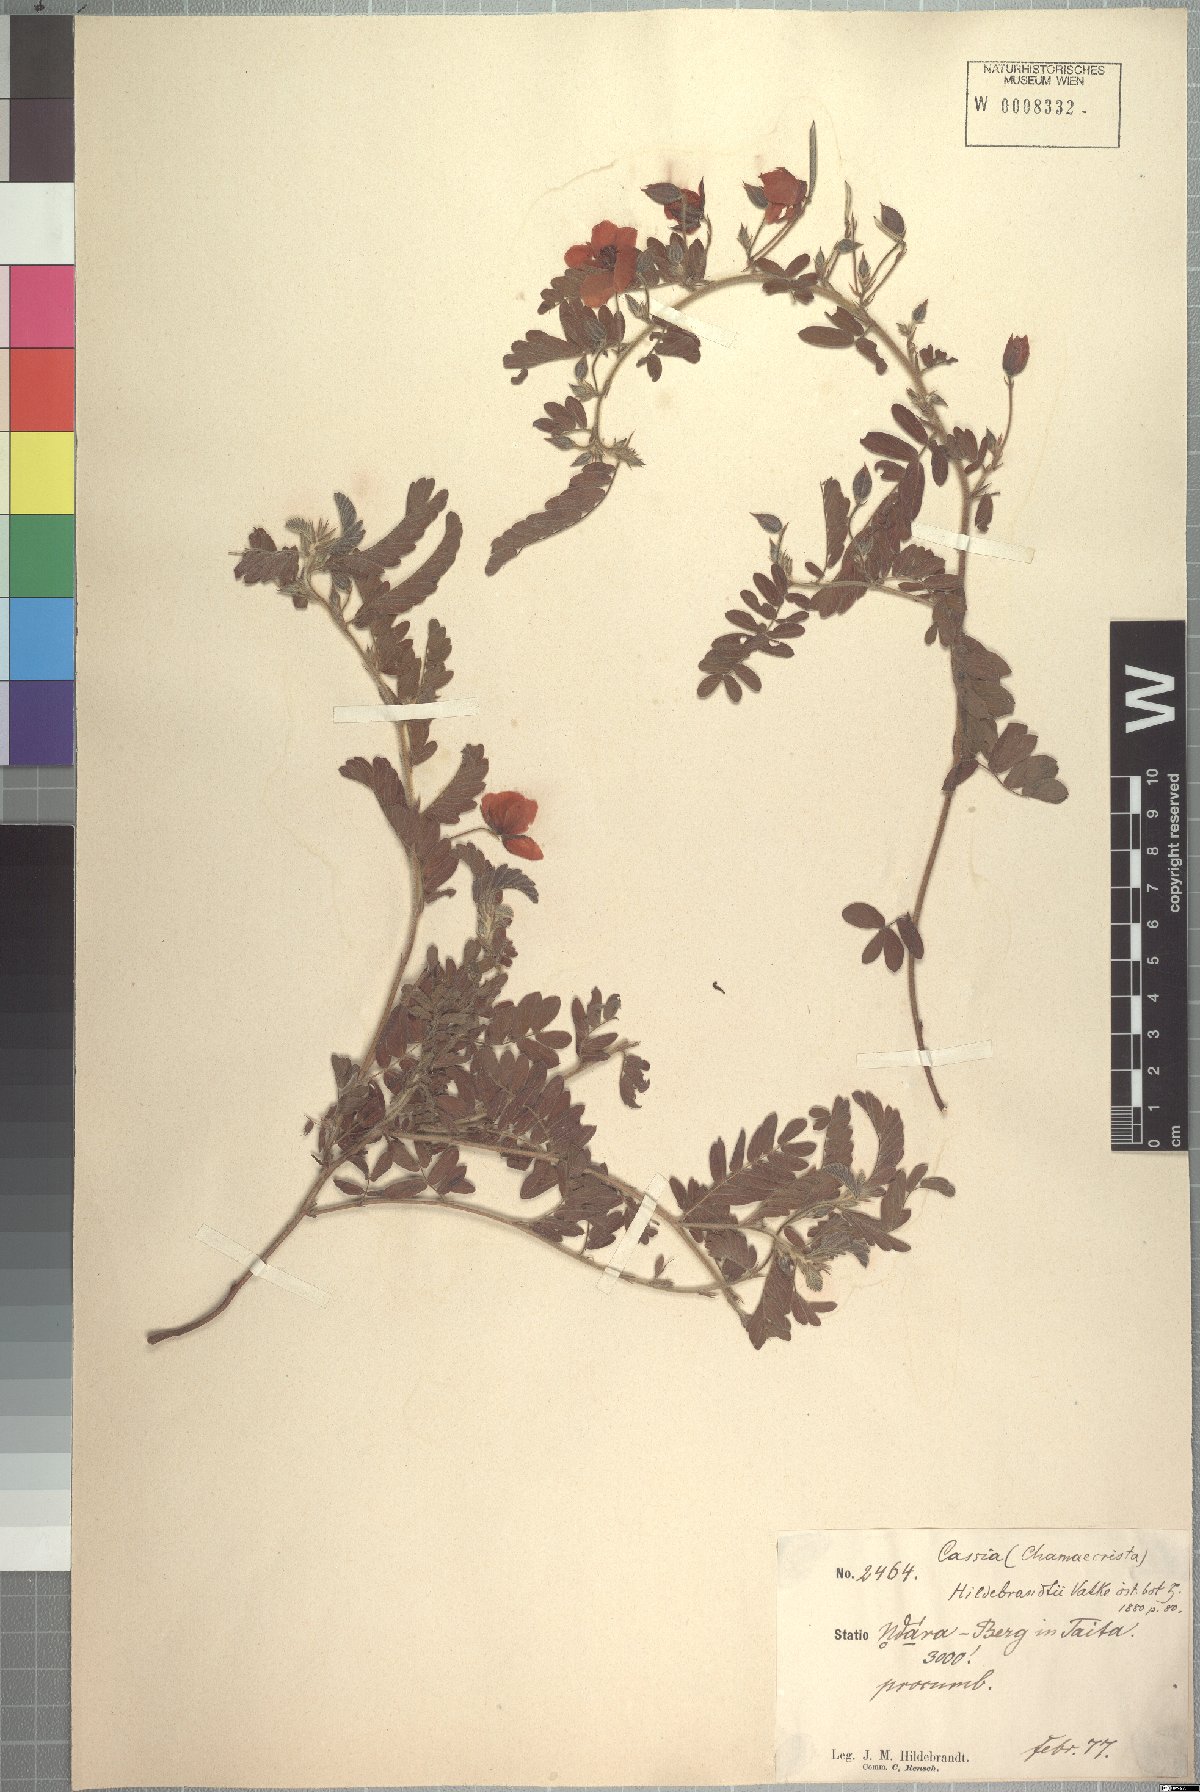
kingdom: Plantae
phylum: Tracheophyta
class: Magnoliopsida
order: Fabales
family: Fabaceae
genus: Chamaecrista
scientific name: Chamaecrista hildebrandtii
